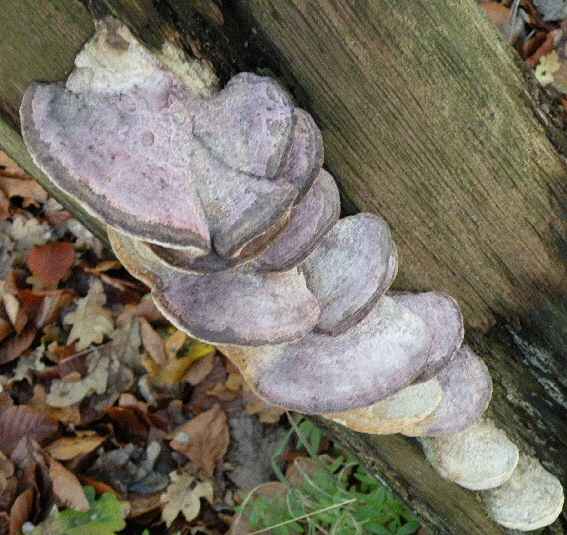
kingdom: Fungi
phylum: Basidiomycota
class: Agaricomycetes
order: Polyporales
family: Fomitopsidaceae
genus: Daedalea
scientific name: Daedalea quercina
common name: ege-labyrintsvamp
